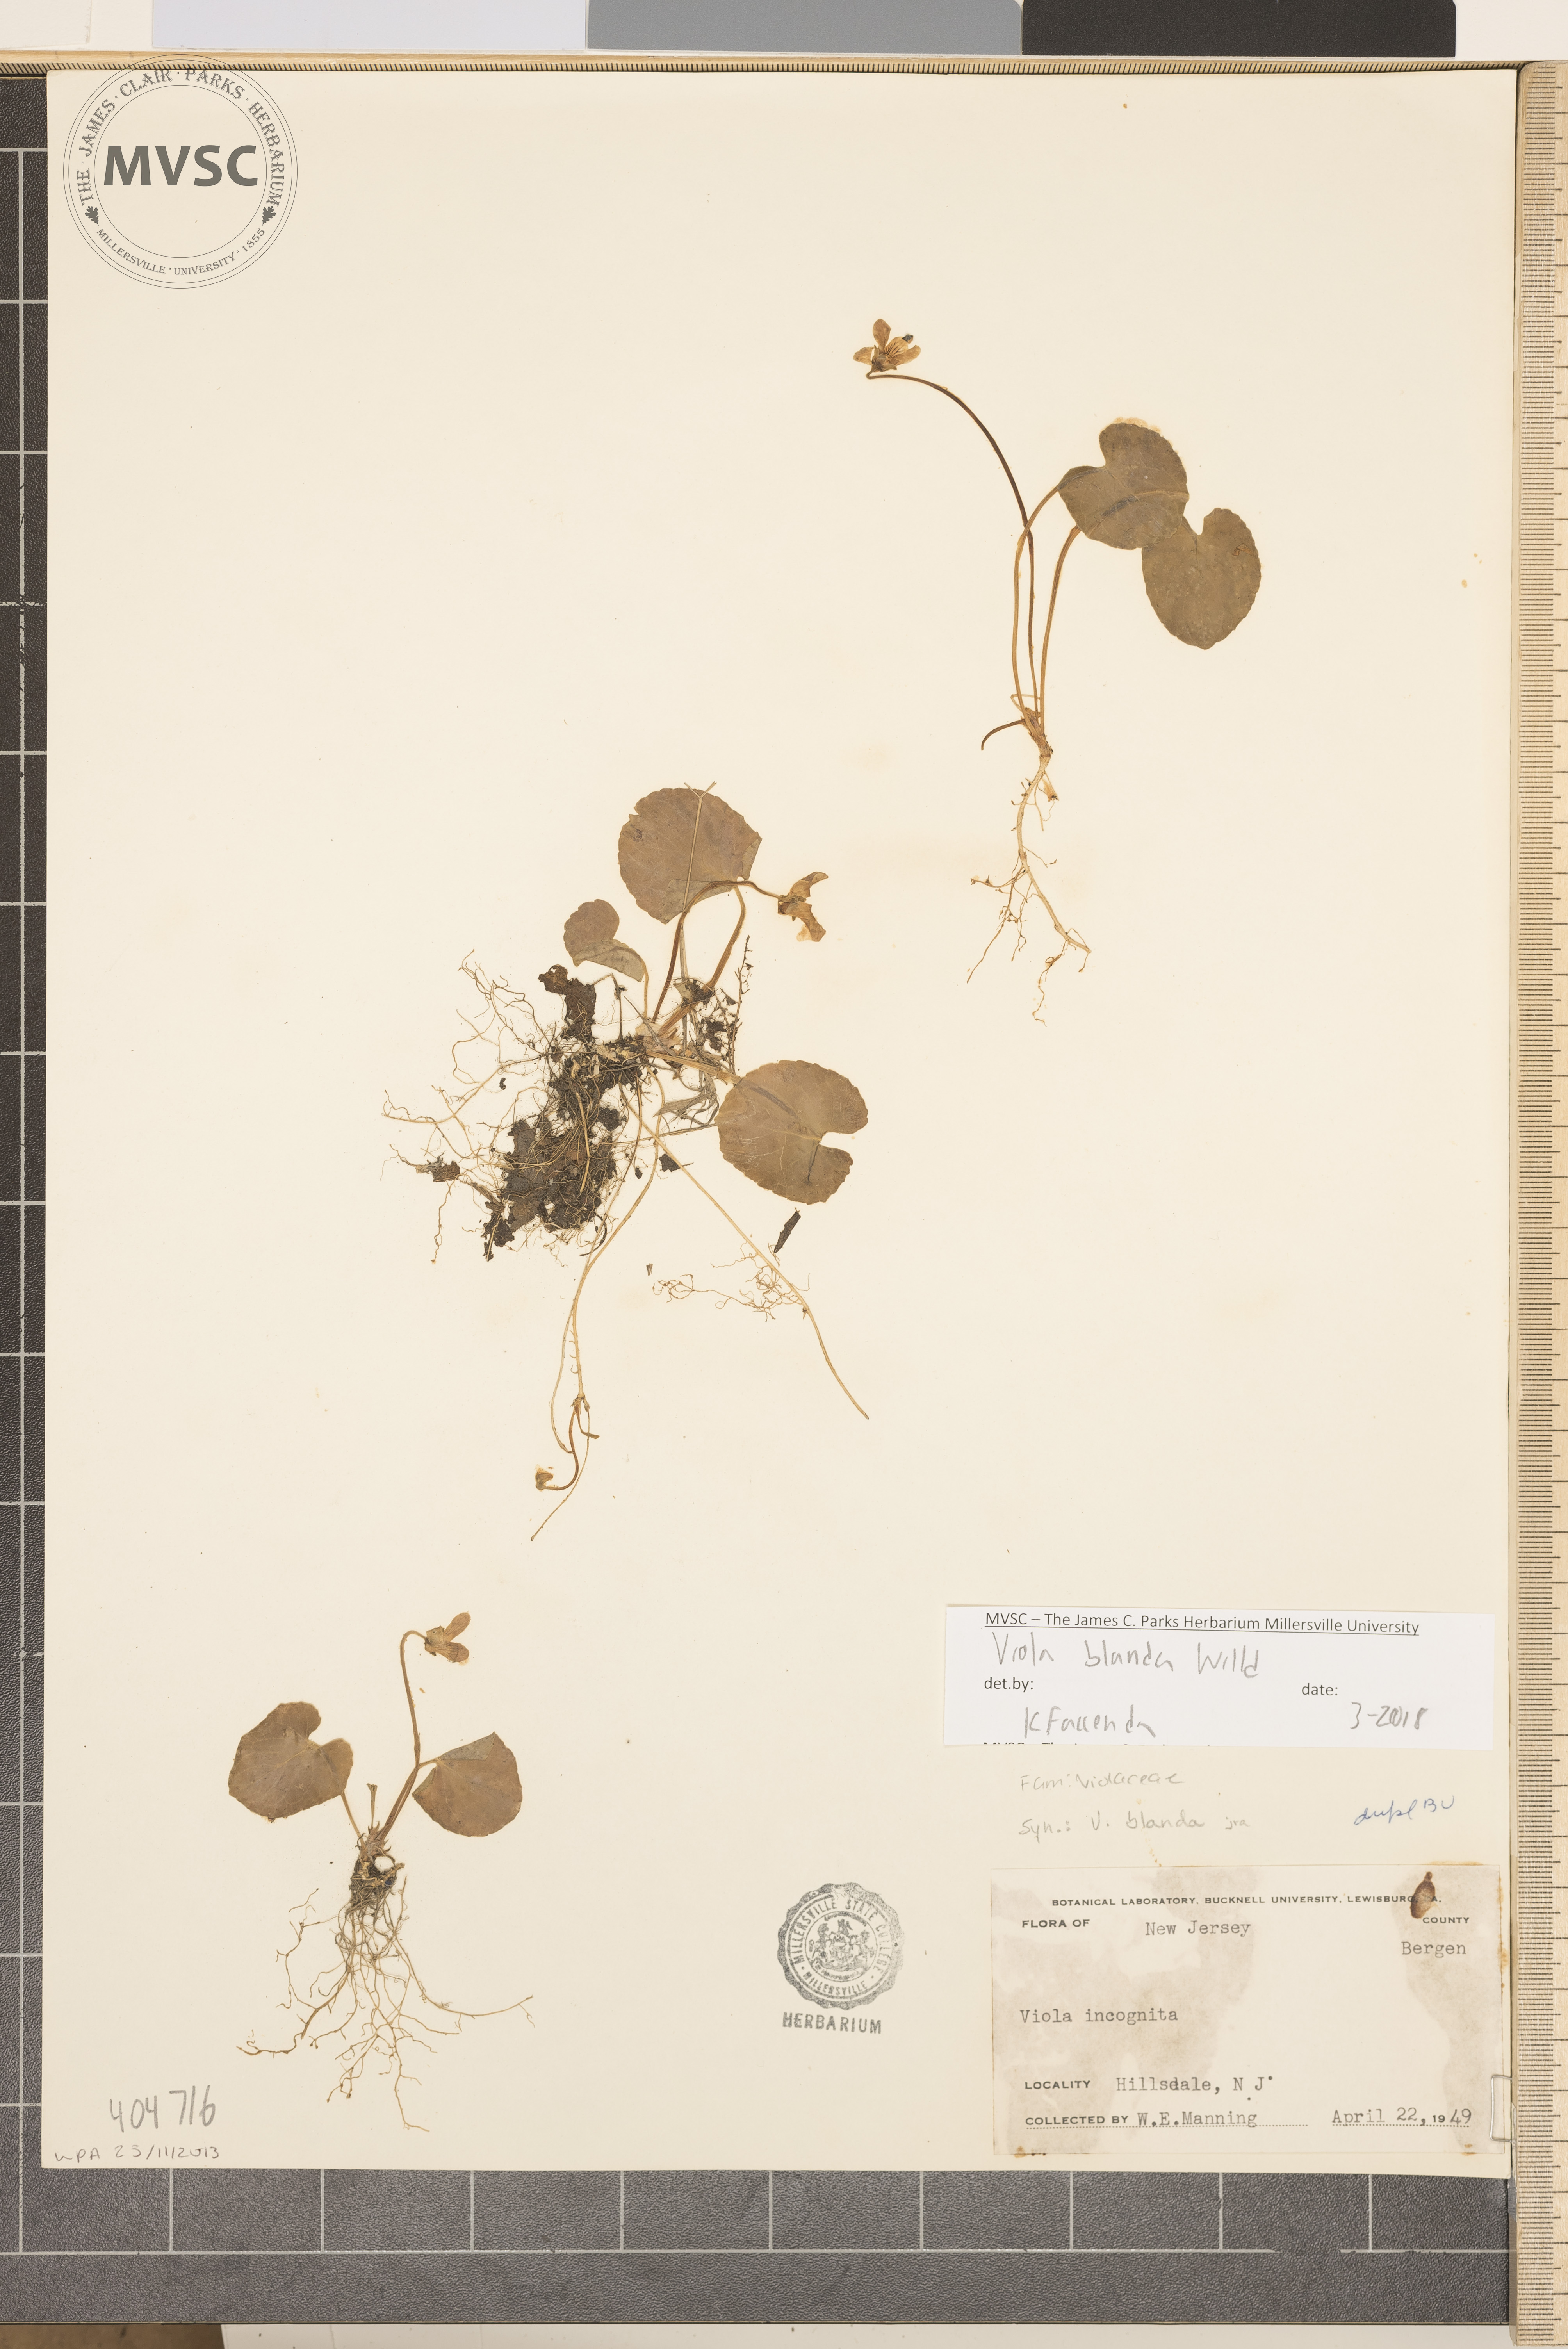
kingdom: Plantae
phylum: Tracheophyta
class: Magnoliopsida
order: Malpighiales
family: Violaceae
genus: Viola
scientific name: Viola blanda
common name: Sweet white violet
